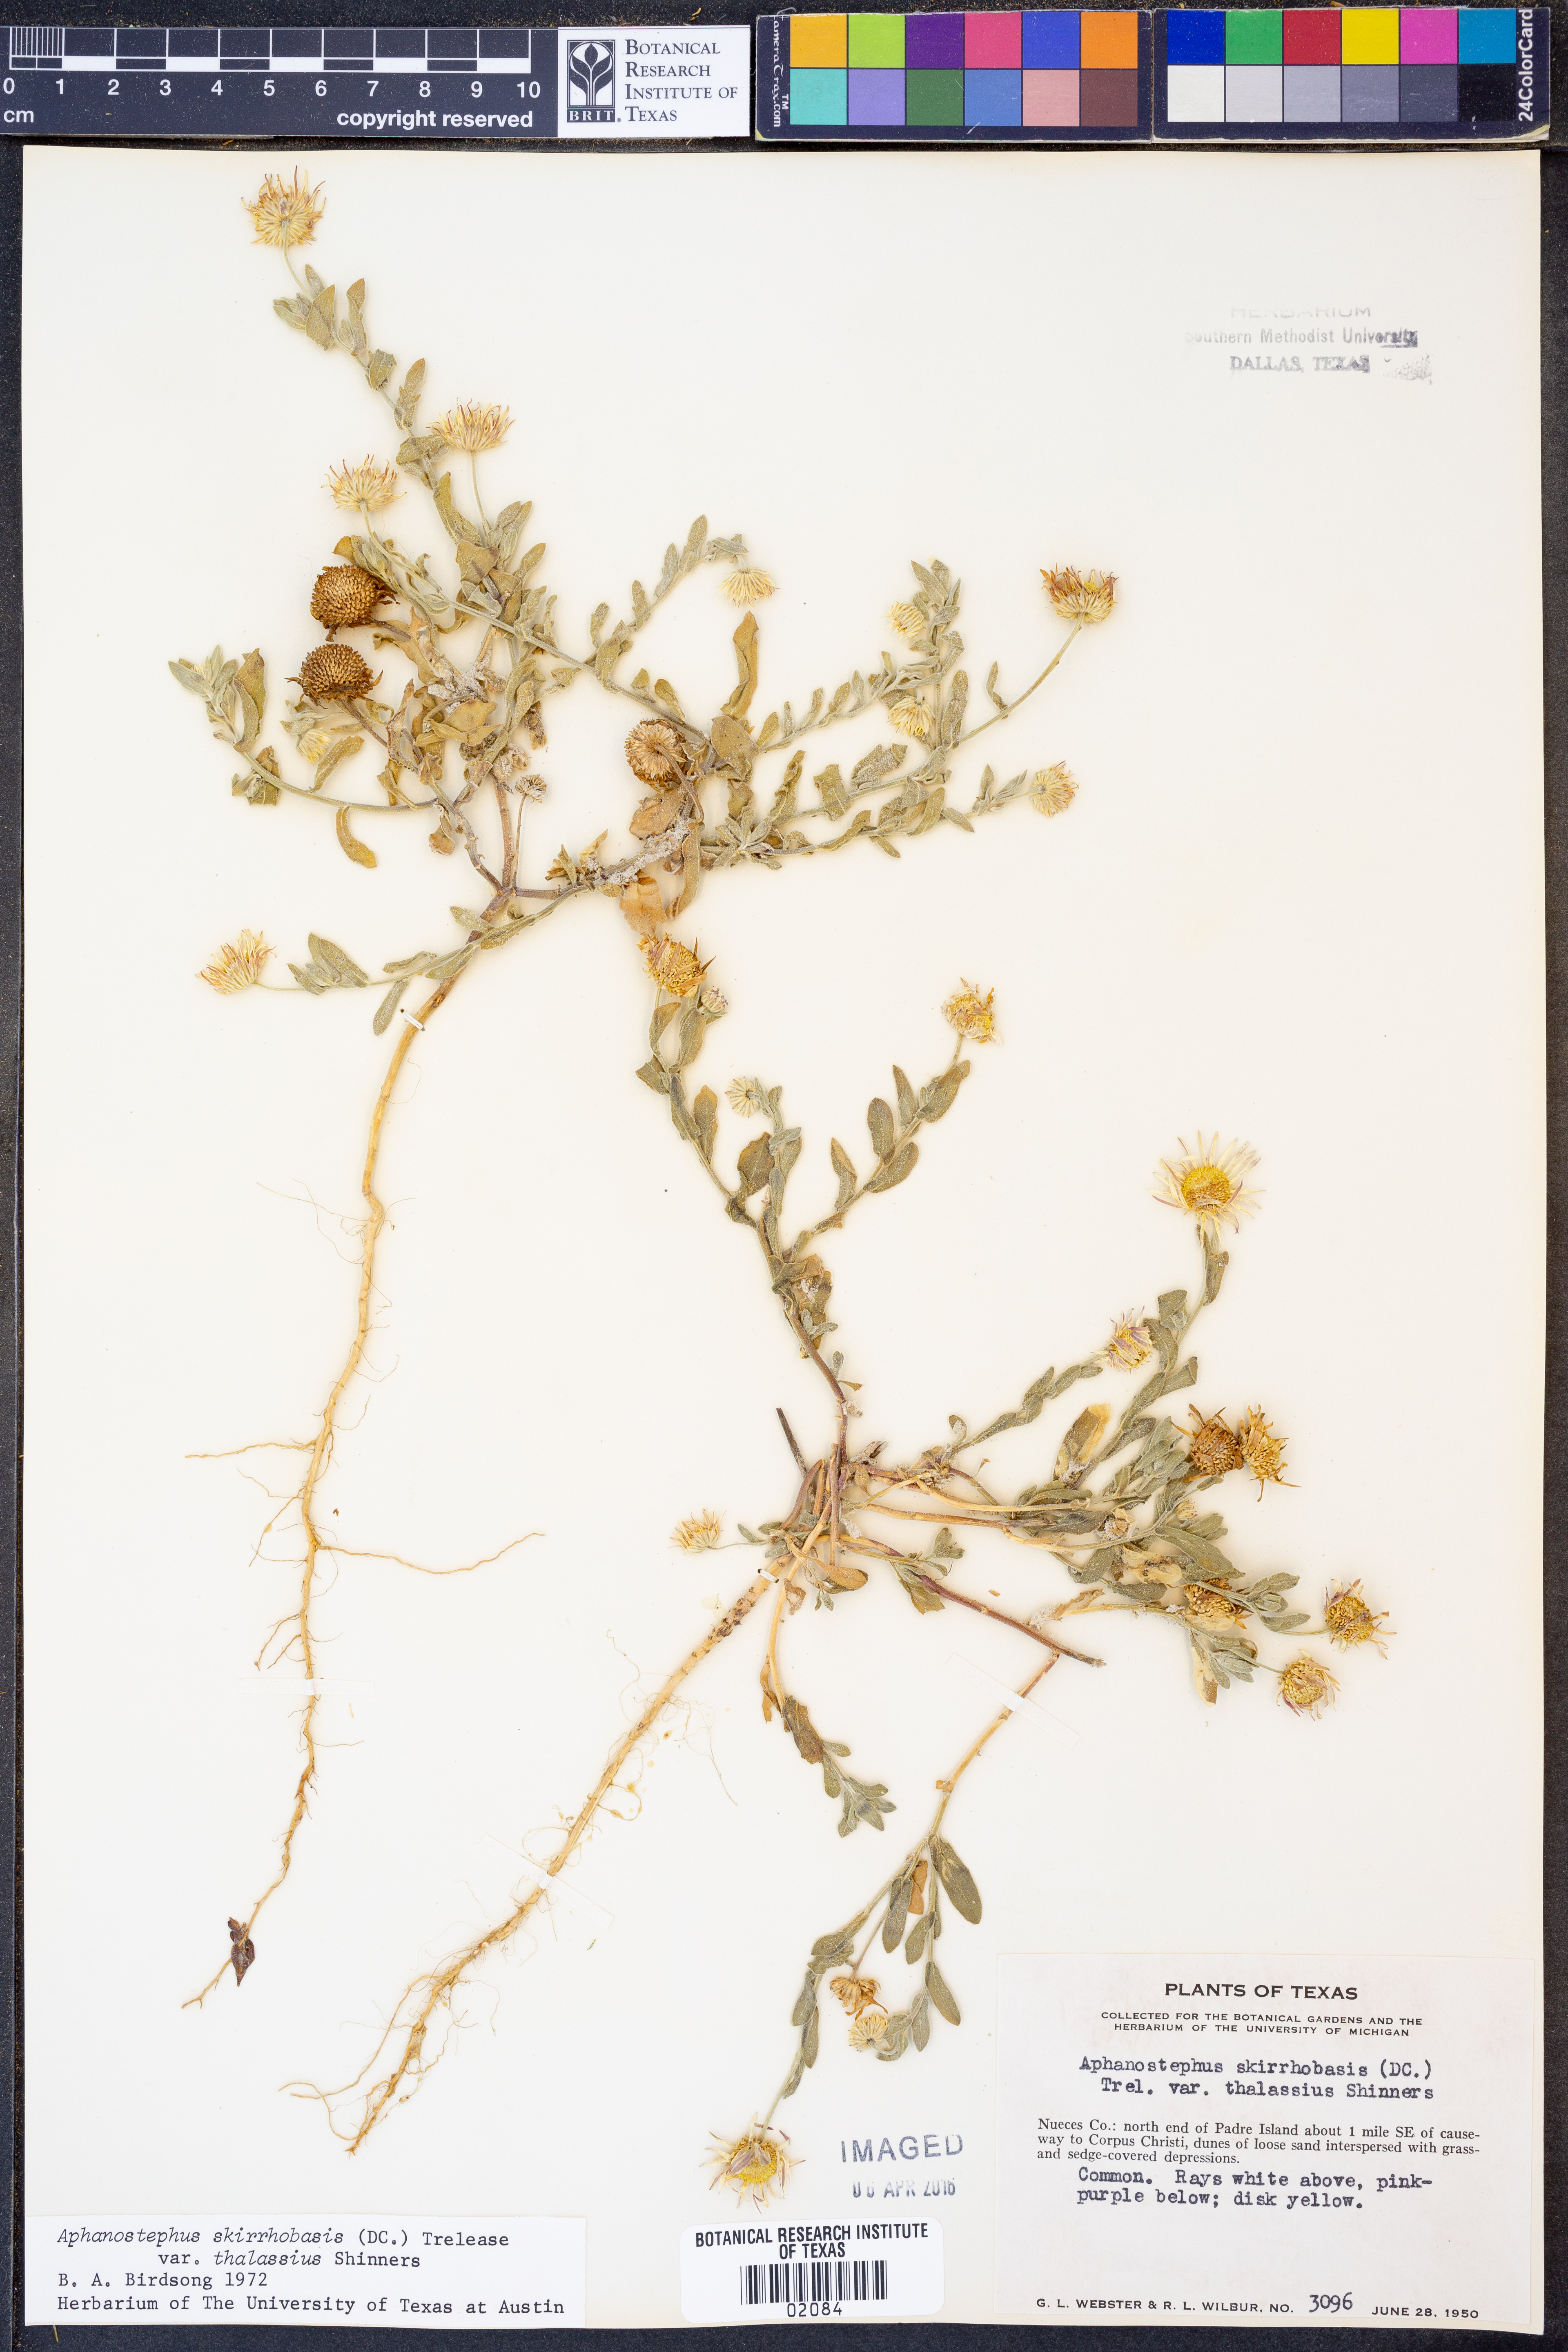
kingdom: Plantae
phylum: Tracheophyta
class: Magnoliopsida
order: Asterales
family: Asteraceae
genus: Aphanostephus
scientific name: Aphanostephus skirrhobasis
